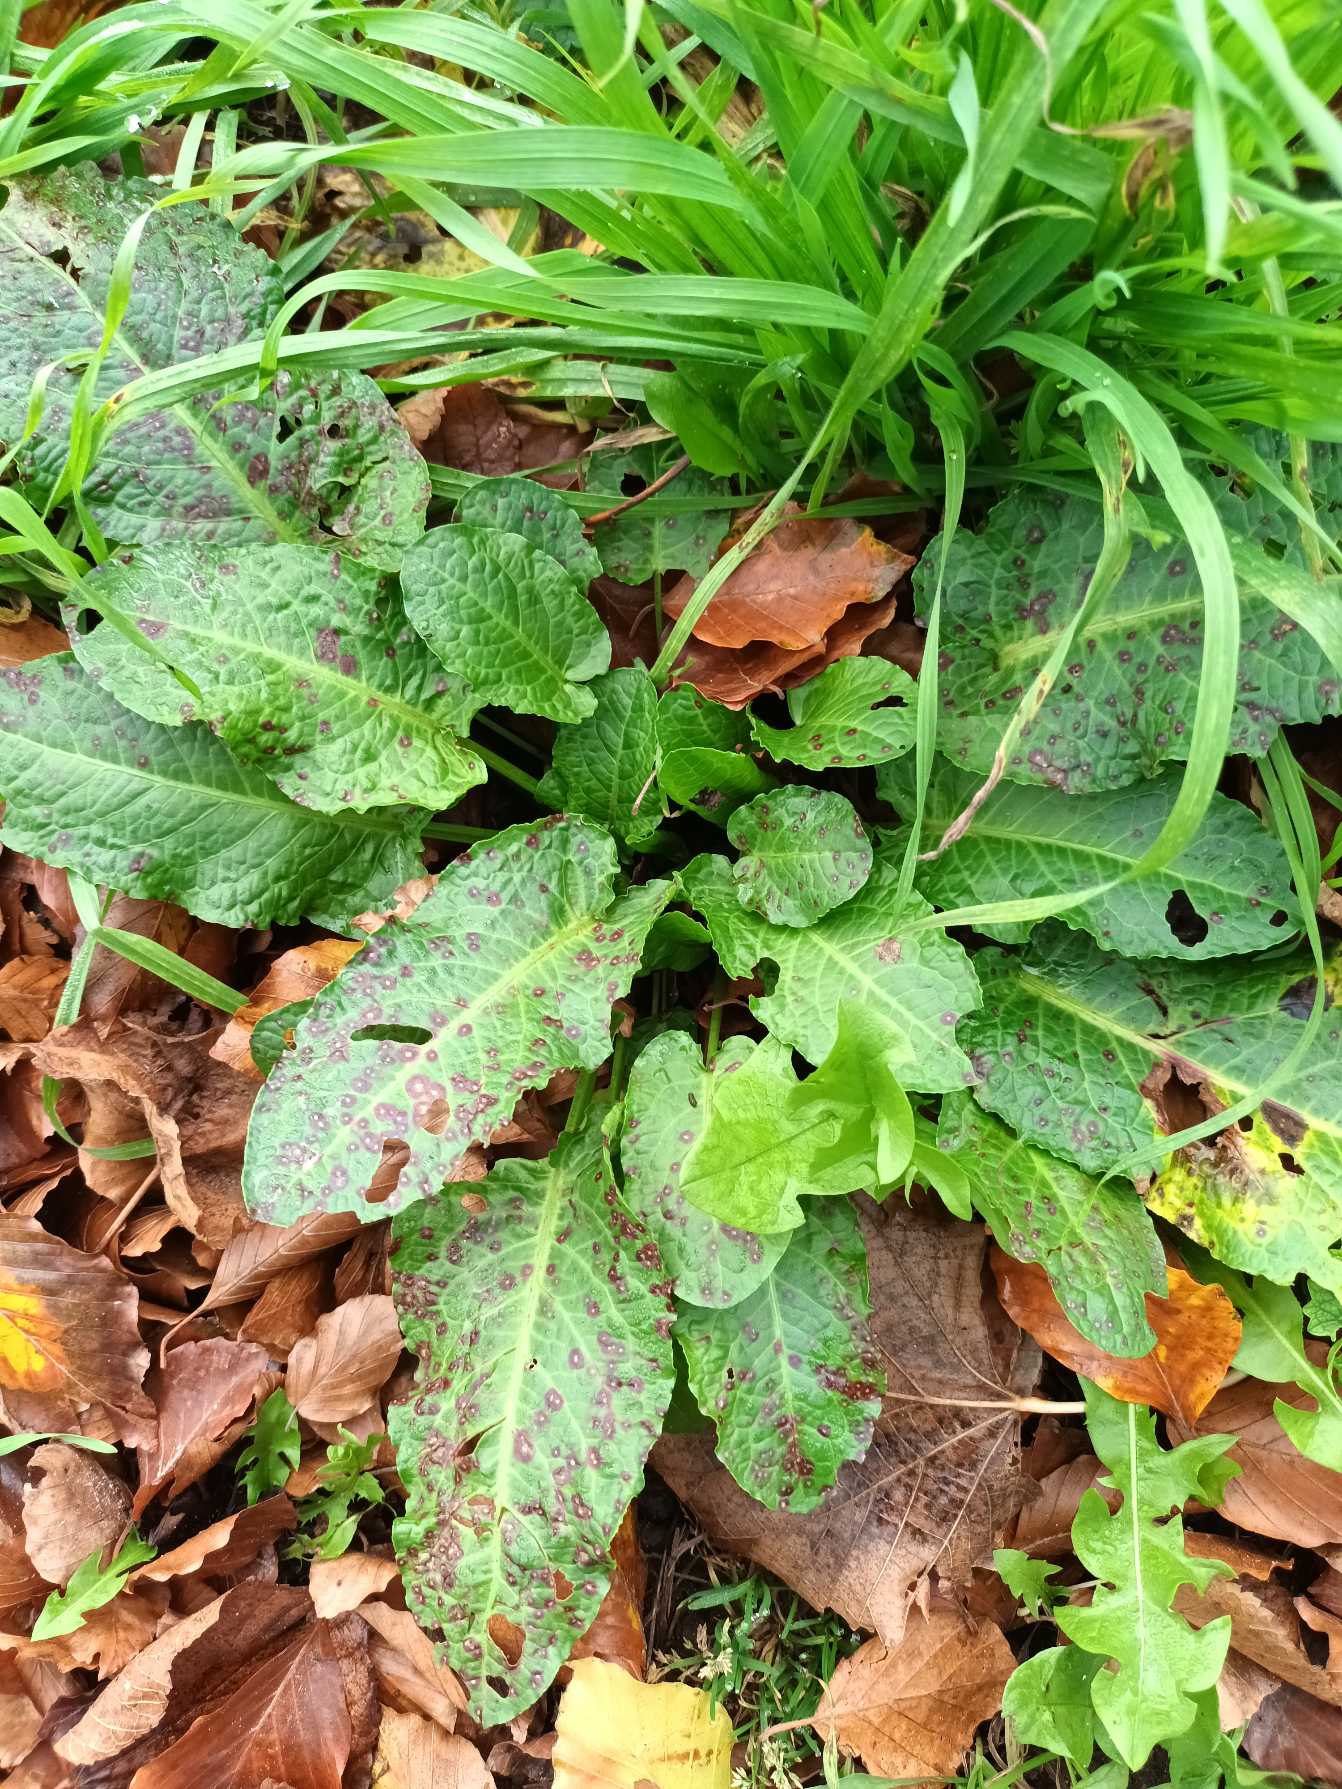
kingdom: Plantae
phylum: Tracheophyta
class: Magnoliopsida
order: Caryophyllales
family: Polygonaceae
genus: Rumex
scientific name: Rumex obtusifolius
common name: Butbladet skræppe
